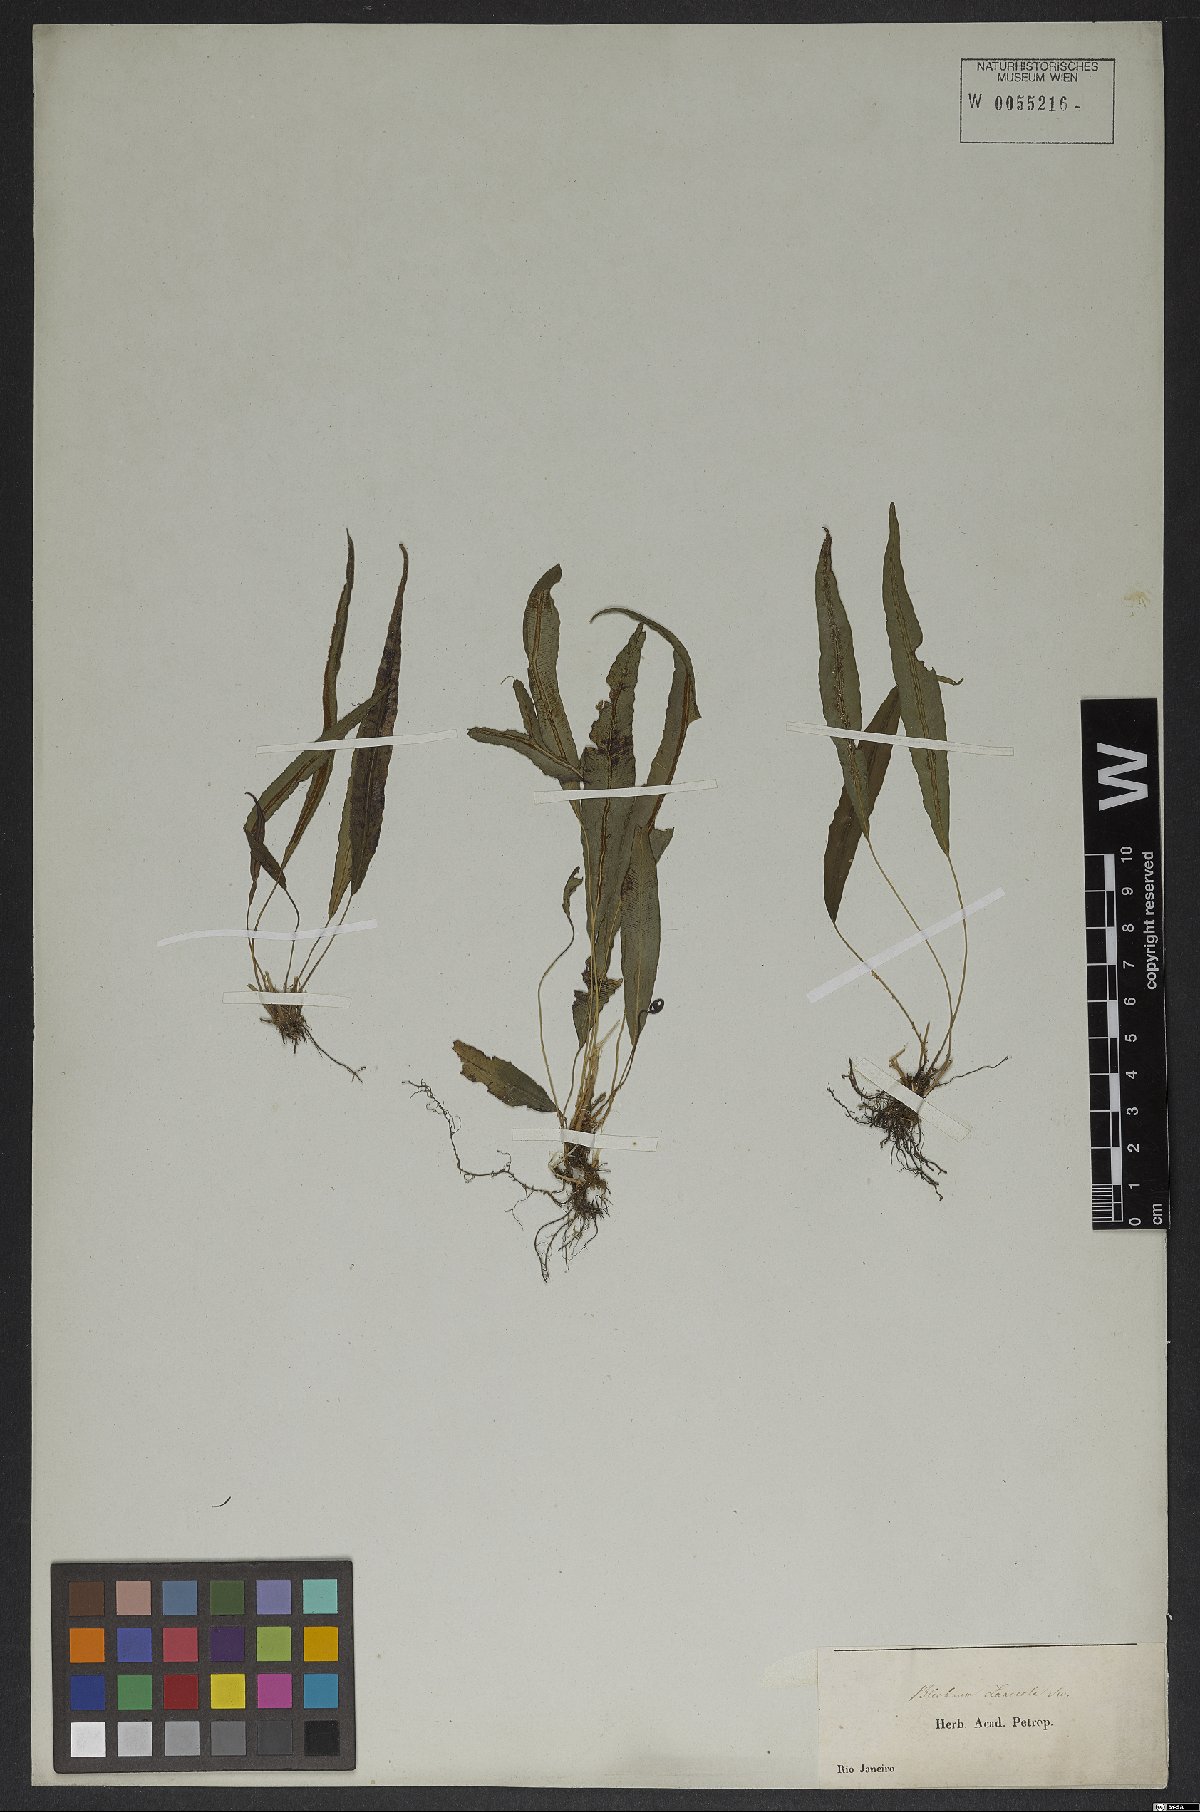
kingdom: Plantae
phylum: Tracheophyta
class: Polypodiopsida
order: Polypodiales
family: Blechnaceae
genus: Blechnum
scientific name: Blechnum lanceola
